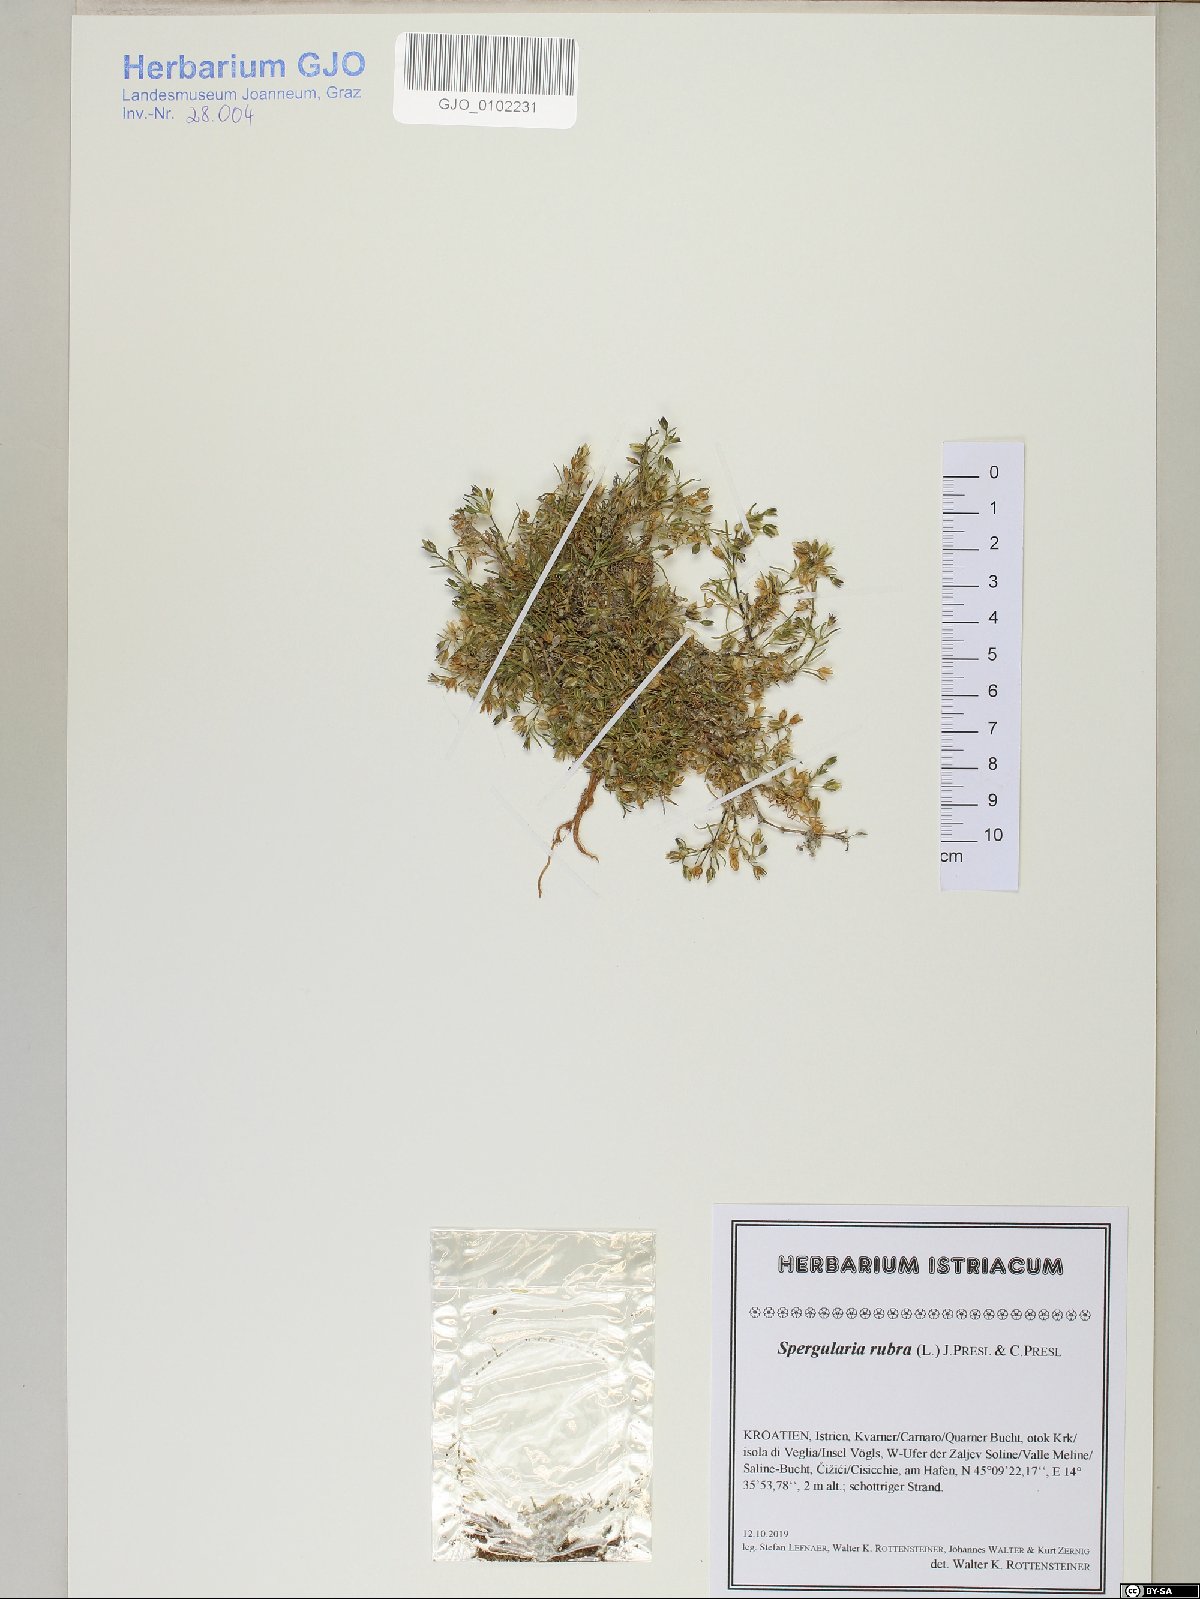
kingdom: Plantae
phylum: Tracheophyta
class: Magnoliopsida
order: Caryophyllales
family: Caryophyllaceae
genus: Spergularia
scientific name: Spergularia rubra
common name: Red sand-spurrey
